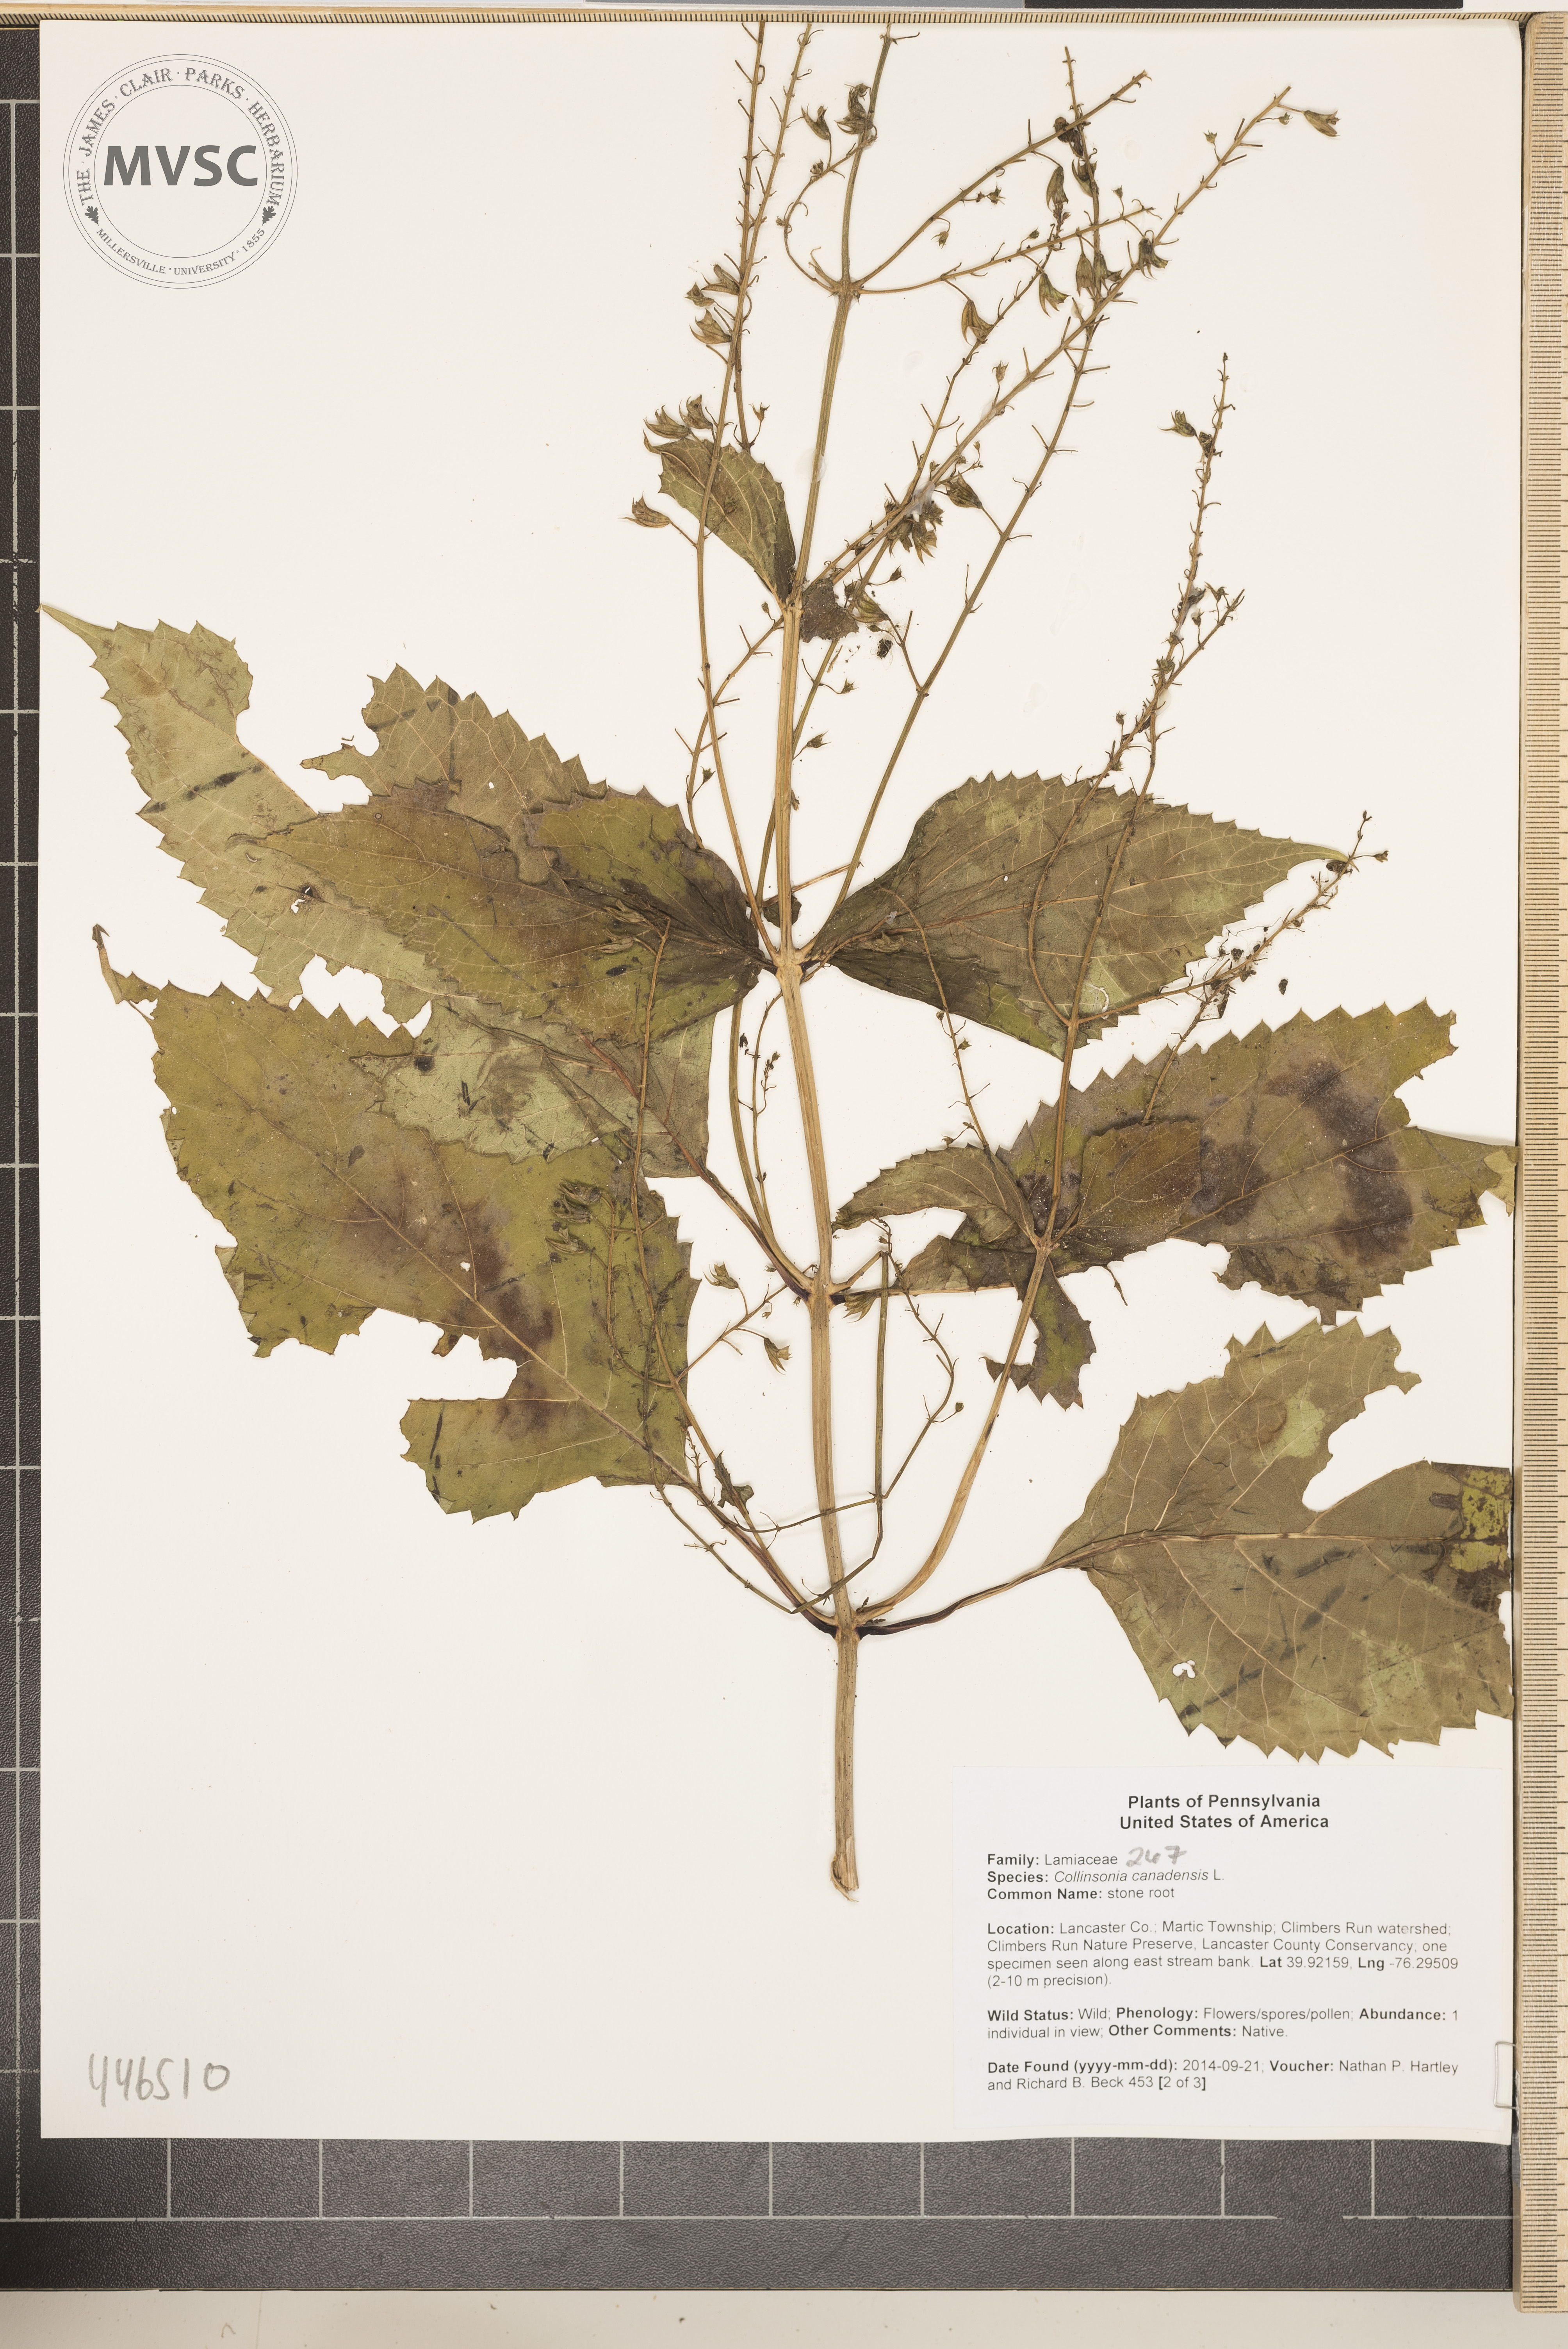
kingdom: Plantae
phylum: Tracheophyta
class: Magnoliopsida
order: Lamiales
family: Lamiaceae
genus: Collinsonia
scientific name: Collinsonia canadensis
